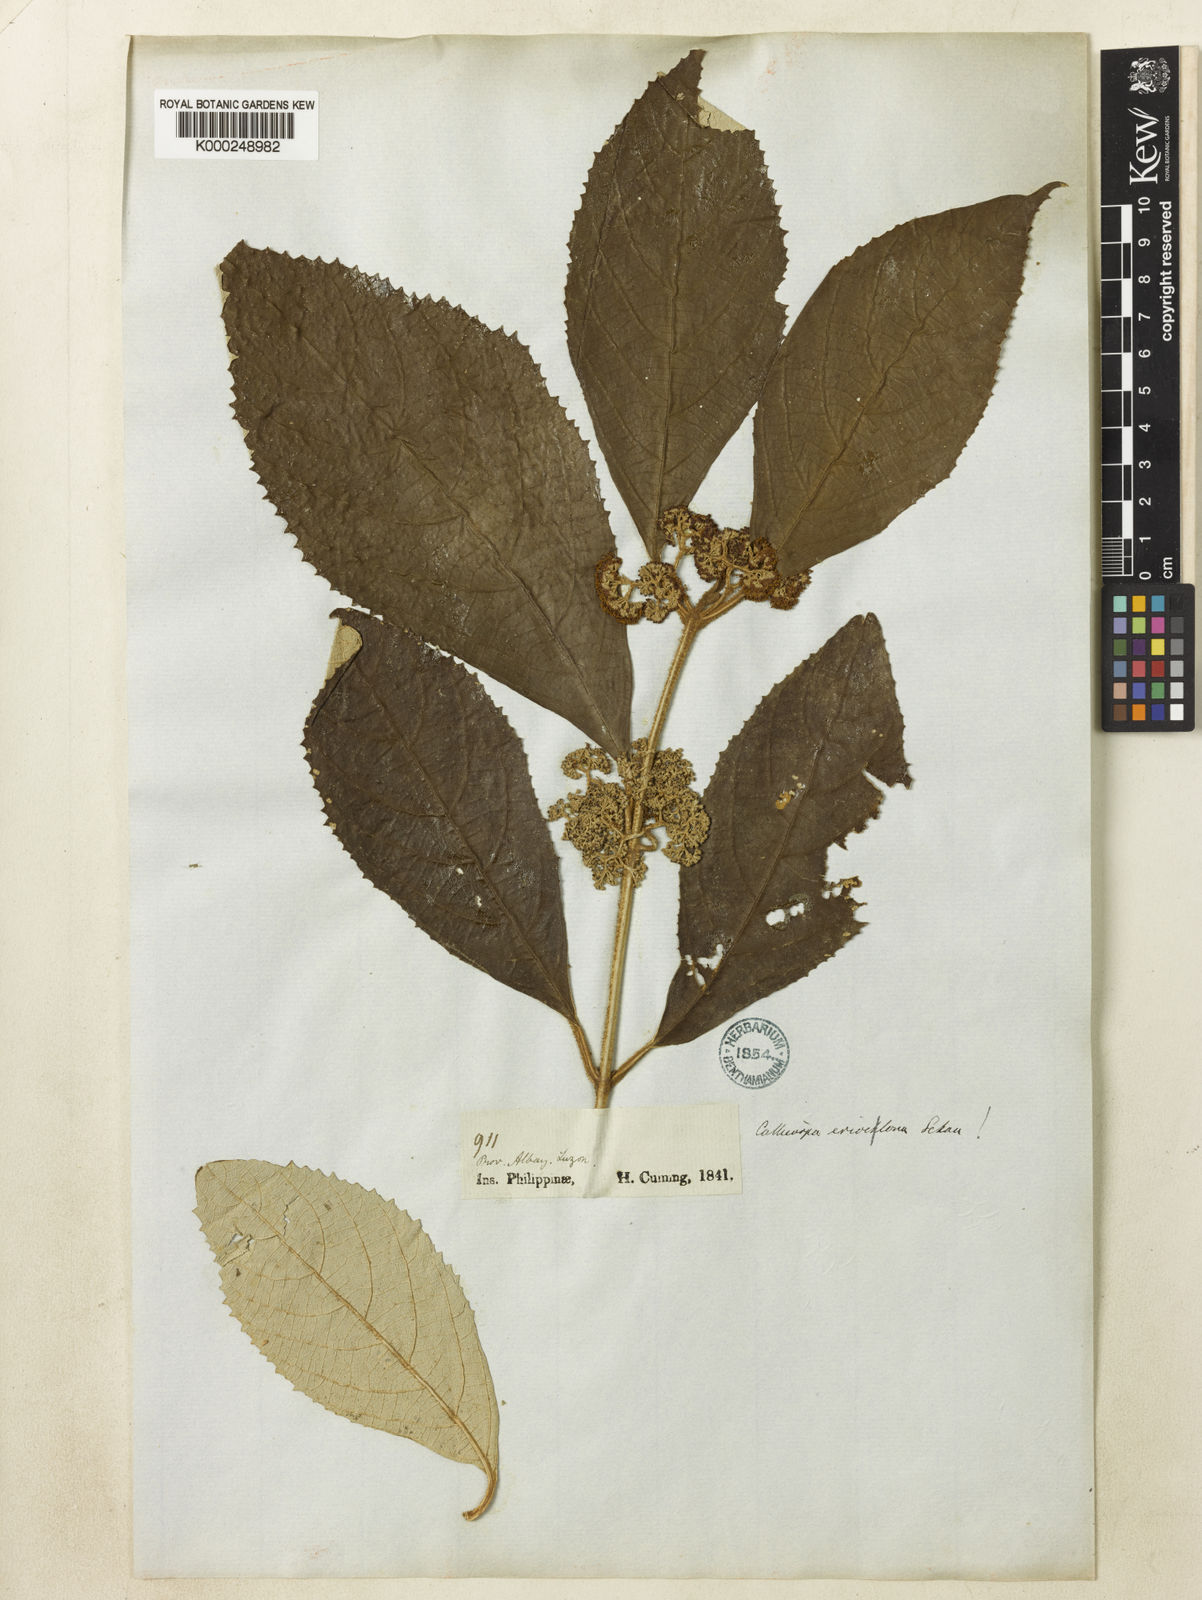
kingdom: Plantae
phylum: Tracheophyta
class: Magnoliopsida
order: Lamiales
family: Lamiaceae
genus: Callicarpa
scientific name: Callicarpa erioclona
